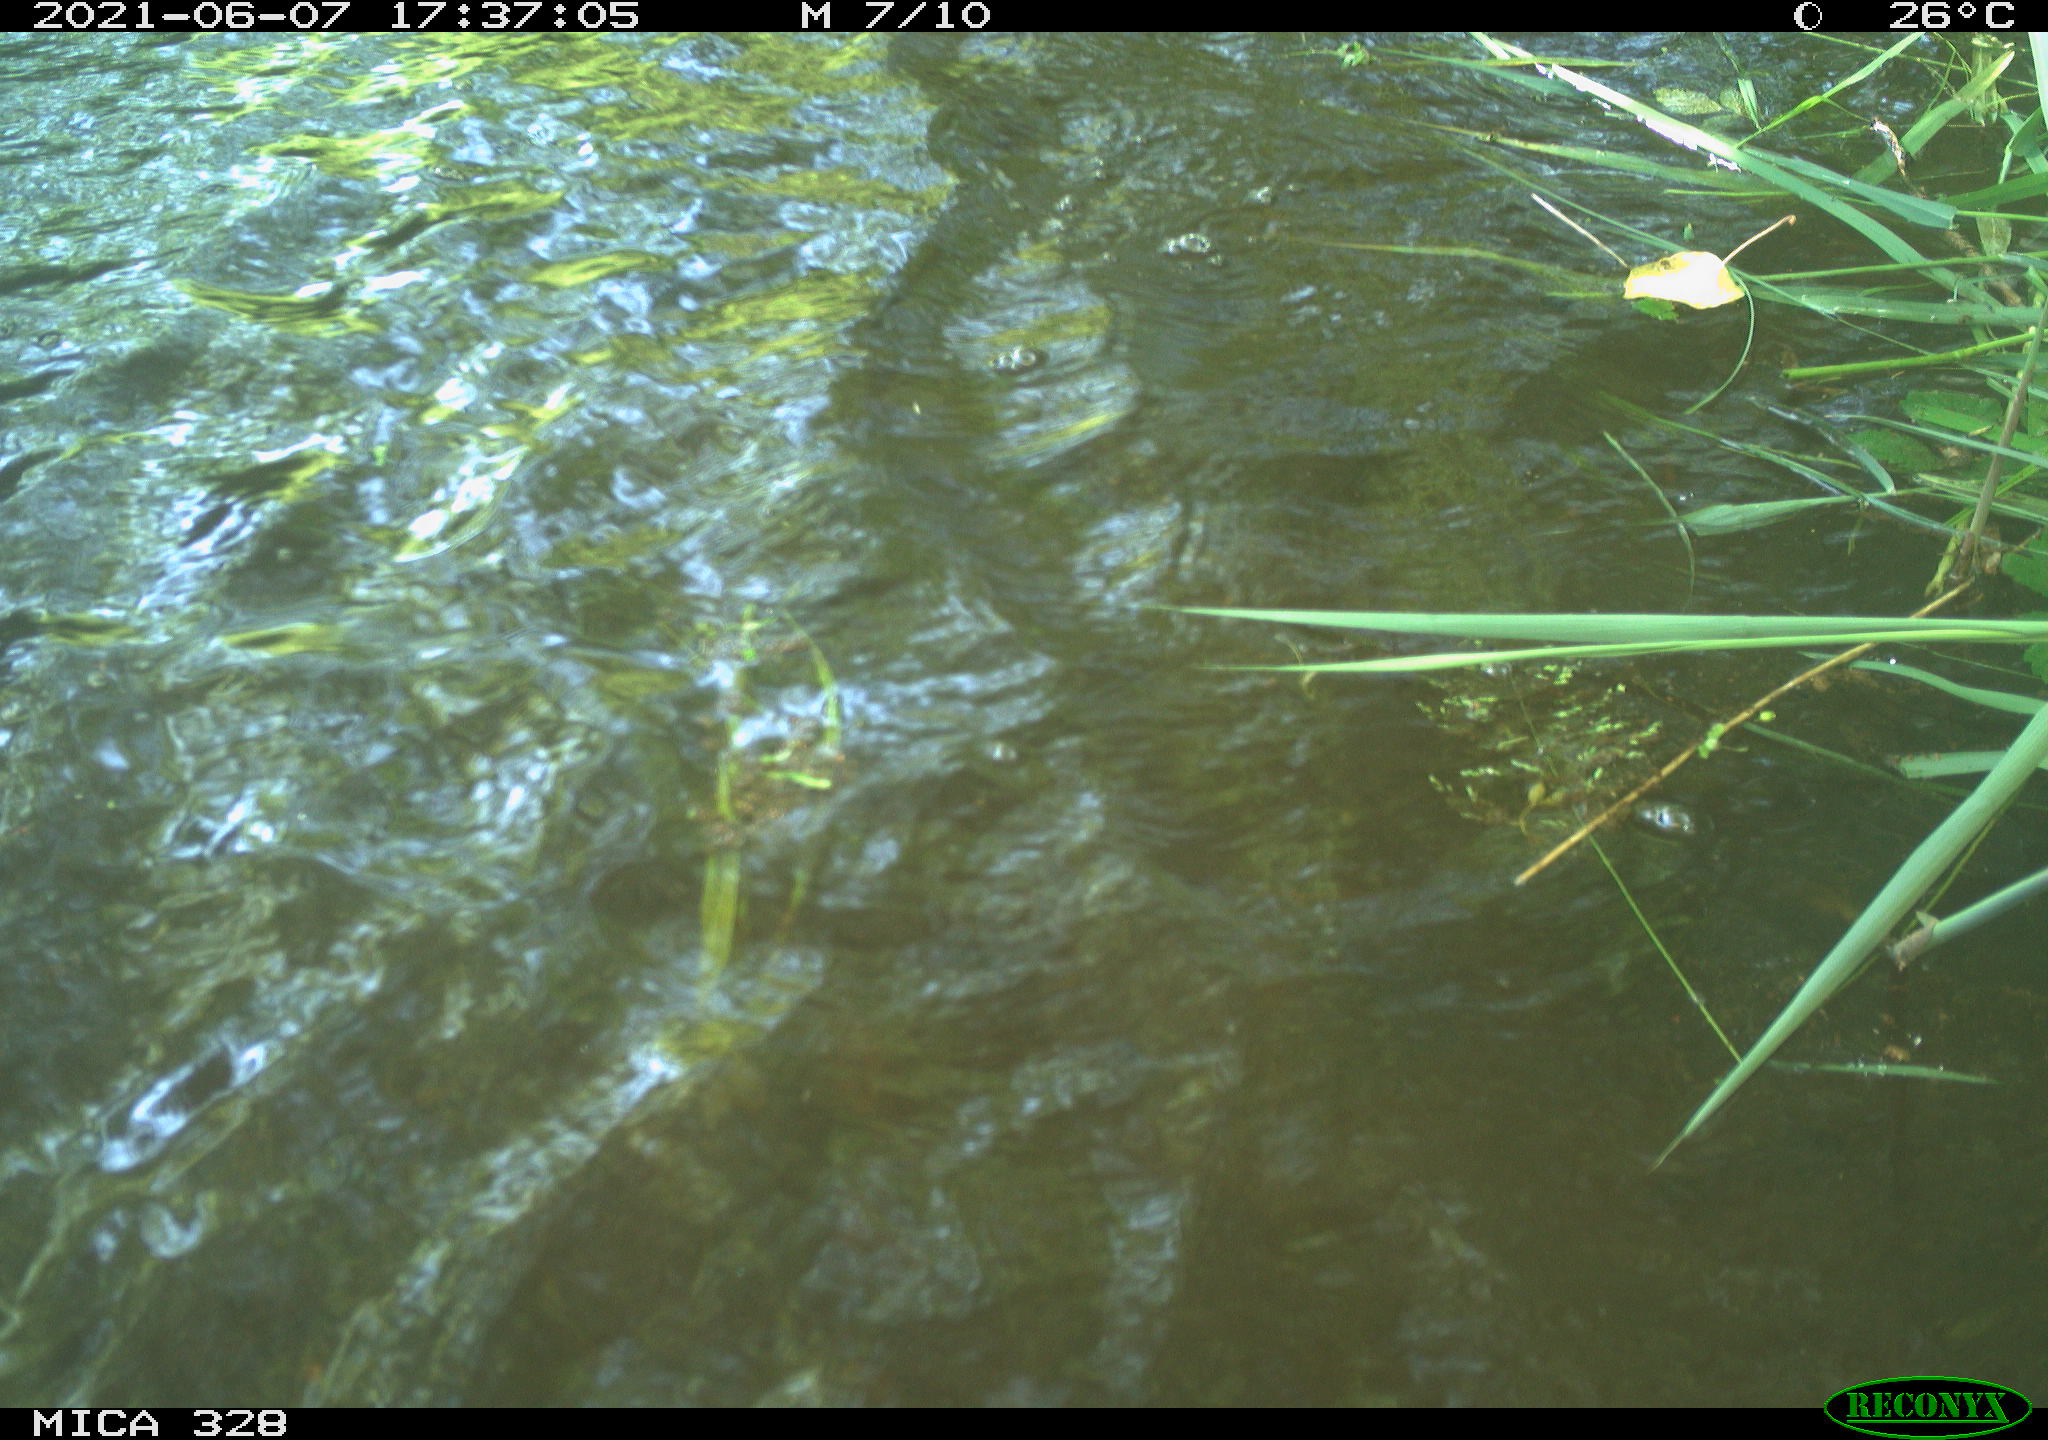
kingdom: Animalia
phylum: Chordata
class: Aves
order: Anseriformes
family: Anatidae
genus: Aix
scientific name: Aix galericulata
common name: Mandarin duck
